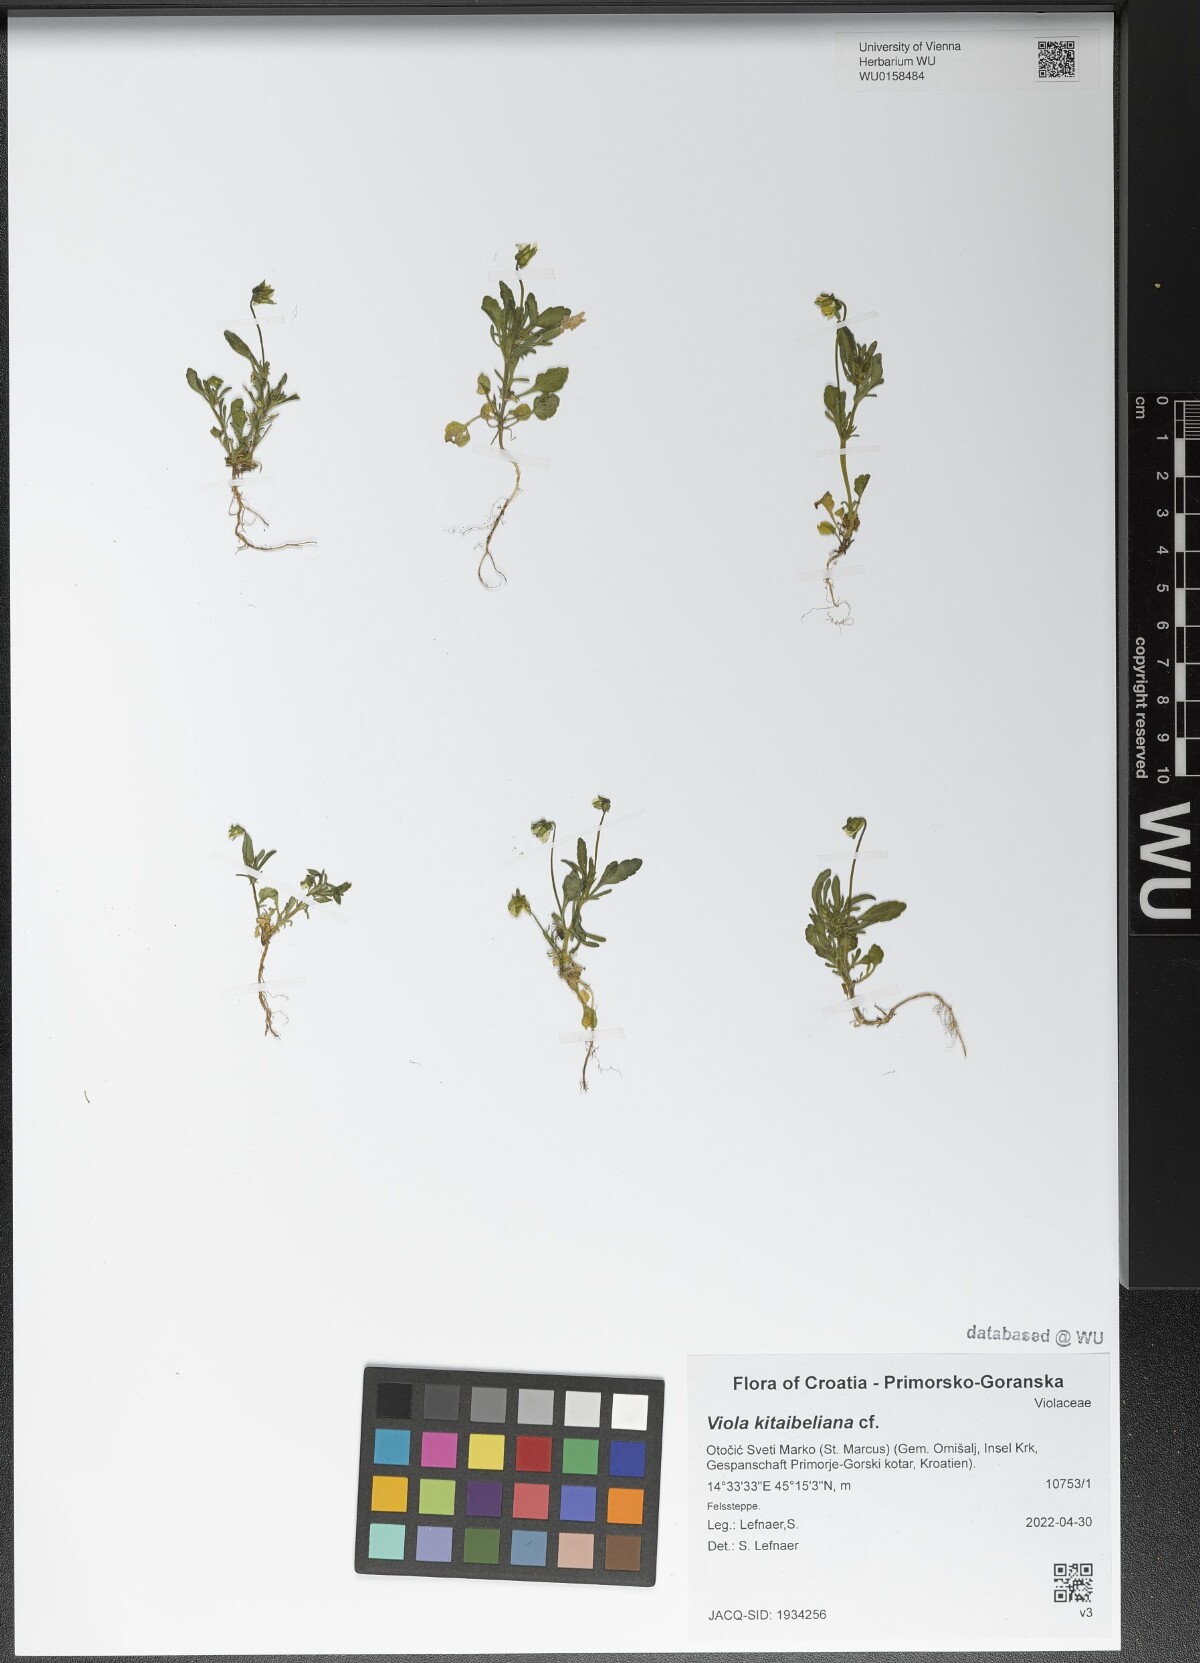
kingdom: Plantae
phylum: Tracheophyta
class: Magnoliopsida
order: Malpighiales
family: Violaceae
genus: Viola
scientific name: Viola kitaibeliana
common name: Dwarf pansy
